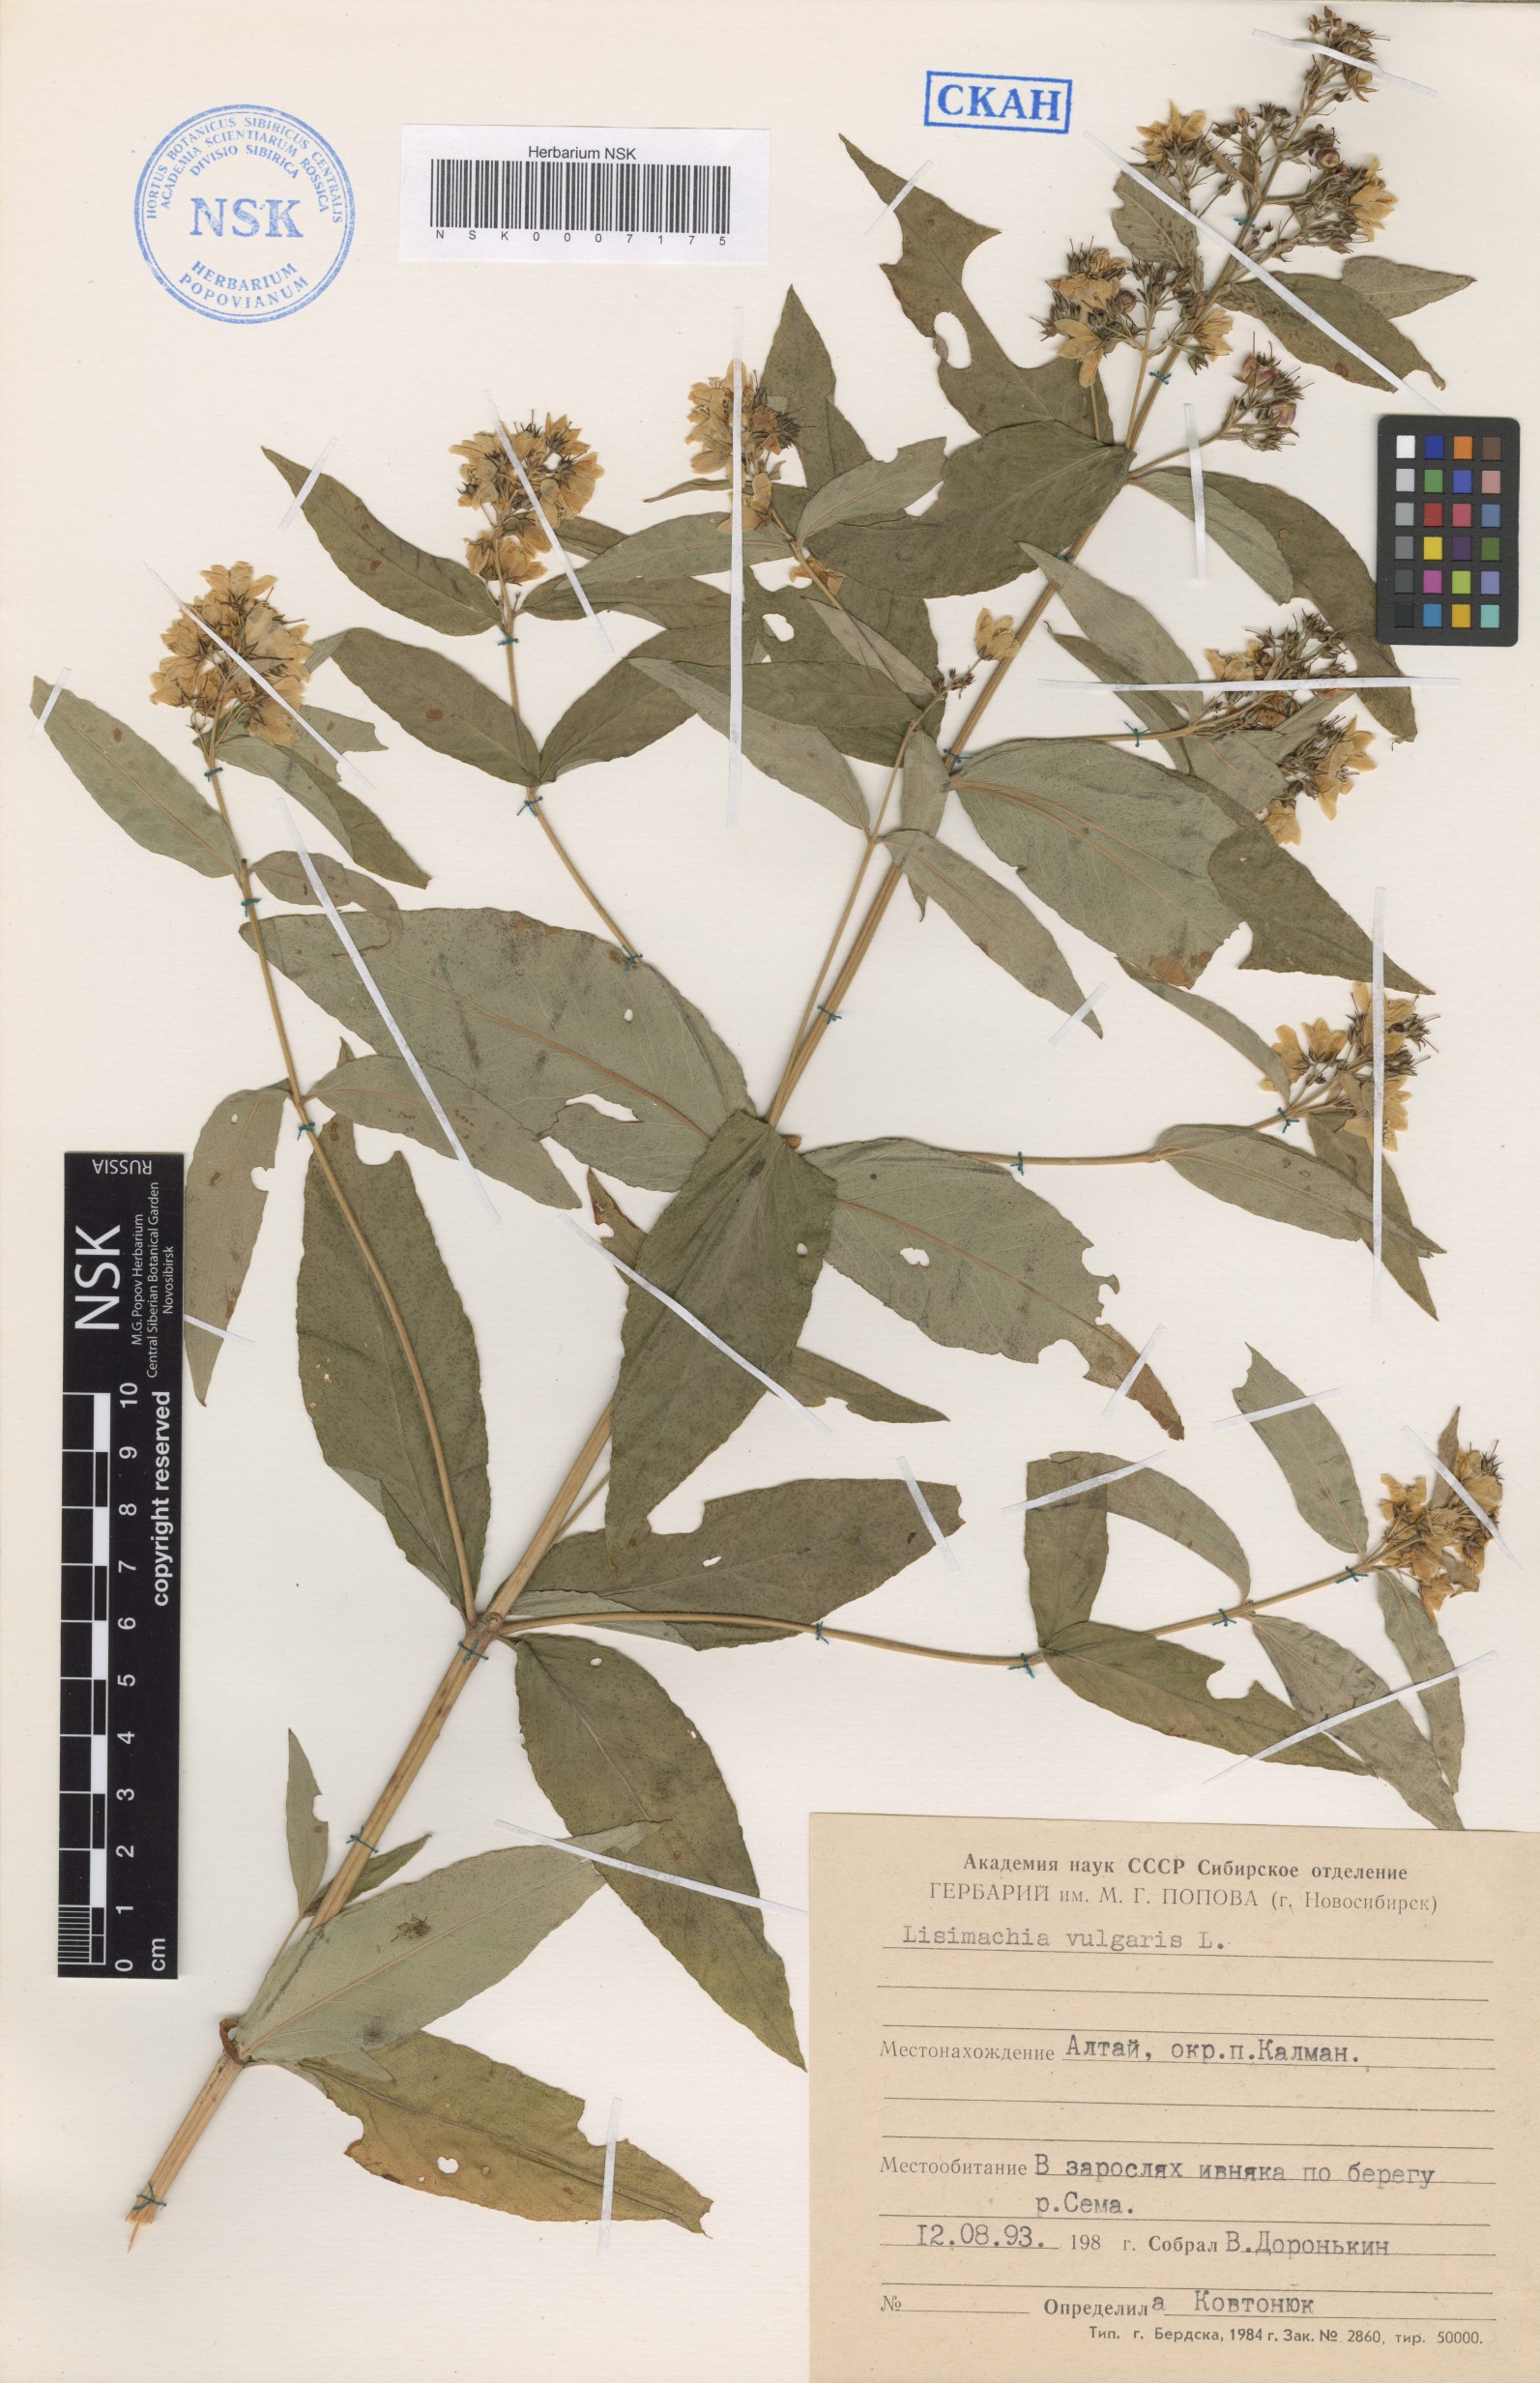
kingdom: Plantae
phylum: Tracheophyta
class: Magnoliopsida
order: Ericales
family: Primulaceae
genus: Lysimachia
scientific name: Lysimachia vulgaris
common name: Yellow loosestrife
